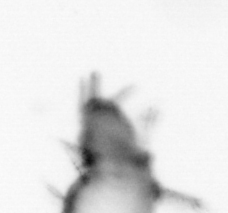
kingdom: Animalia
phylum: Annelida
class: Polychaeta
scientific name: Polychaeta
